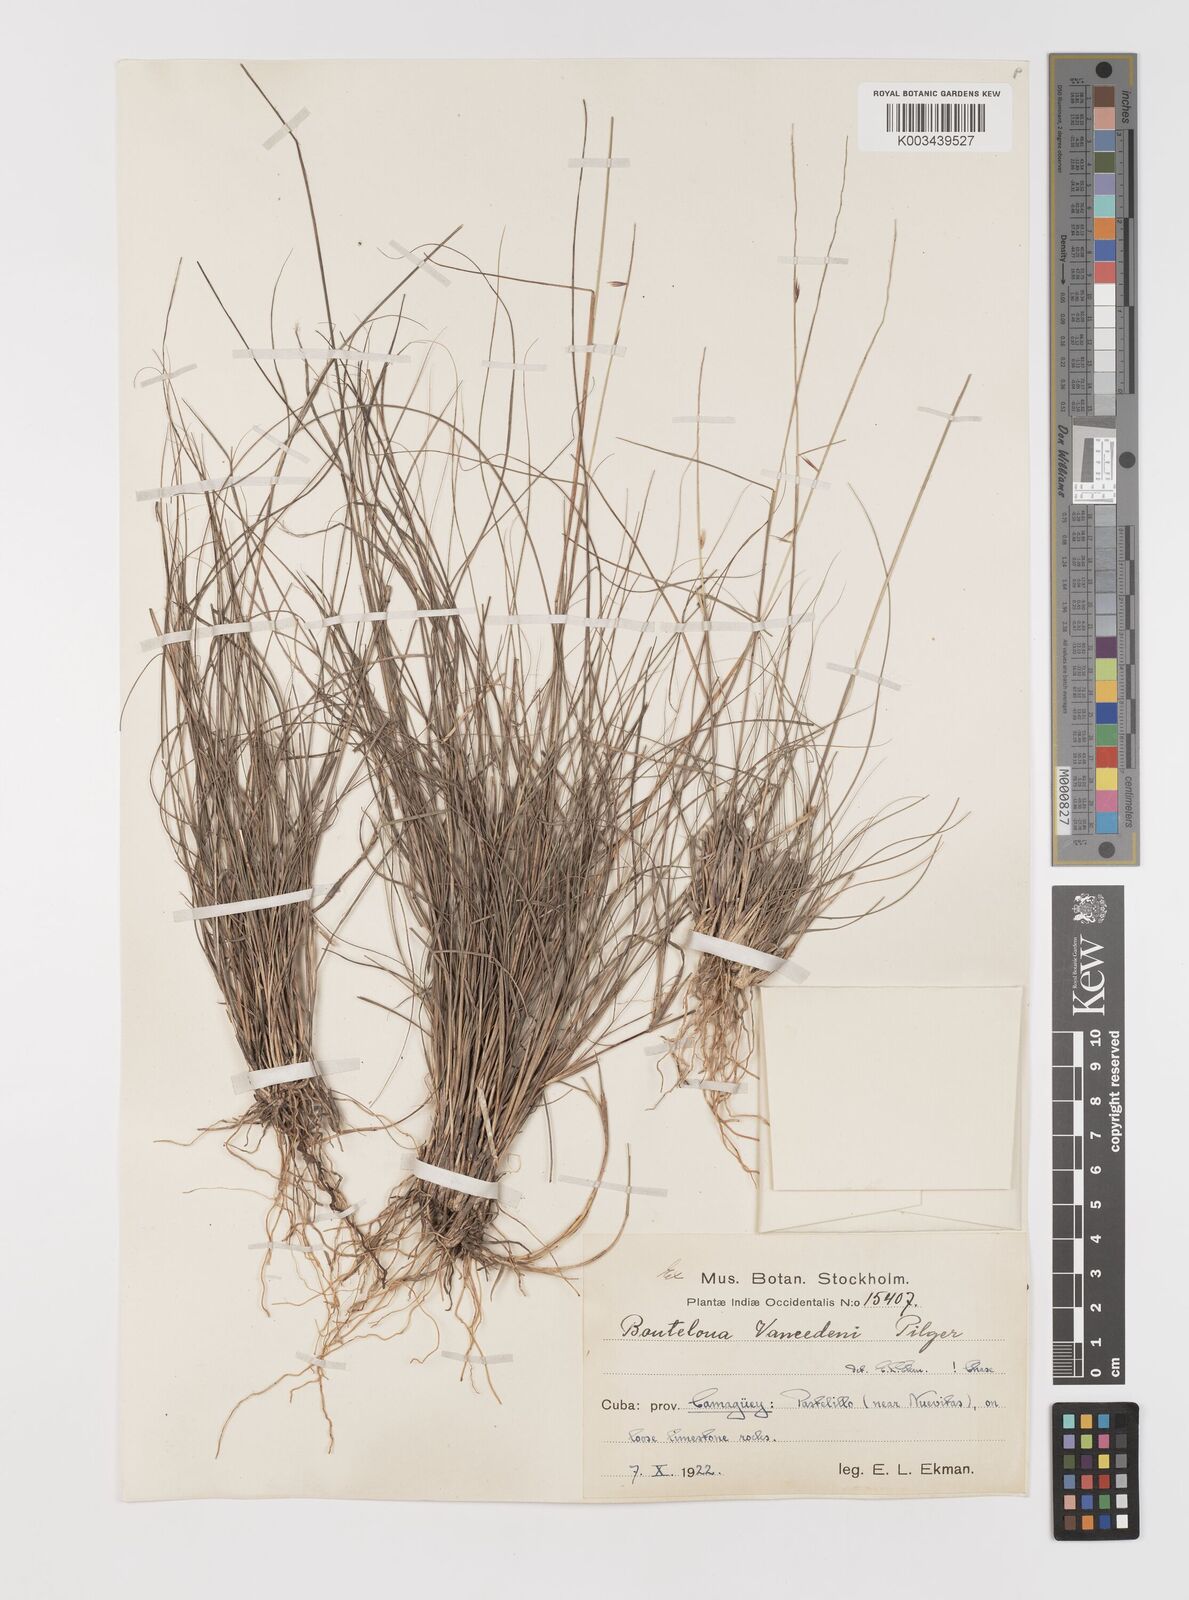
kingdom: Plantae
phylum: Tracheophyta
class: Liliopsida
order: Poales
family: Poaceae
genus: Bouteloua
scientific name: Bouteloua vaneedenii
